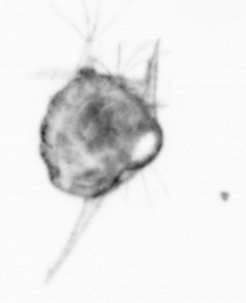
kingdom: Animalia
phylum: Arthropoda
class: Copepoda
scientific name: Copepoda
